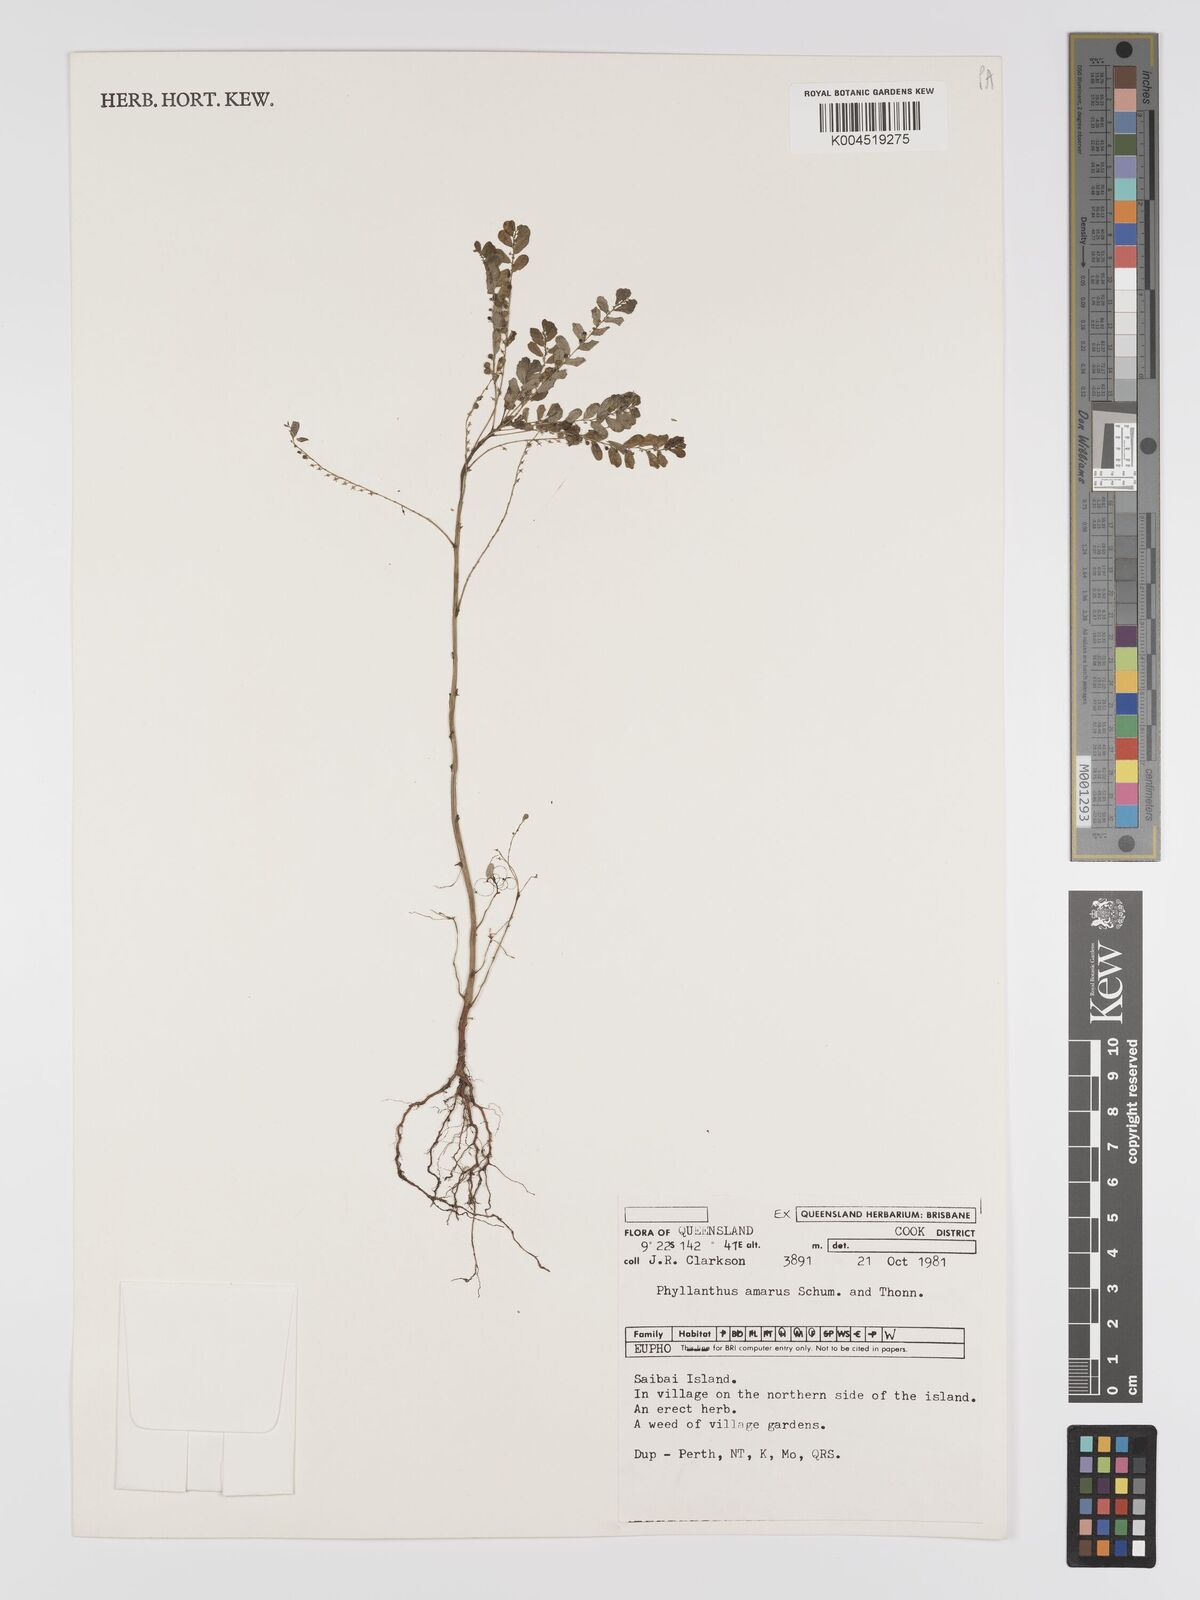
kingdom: Plantae
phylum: Tracheophyta
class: Magnoliopsida
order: Malpighiales
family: Phyllanthaceae
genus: Phyllanthus
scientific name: Phyllanthus amarus
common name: Carry me seed
